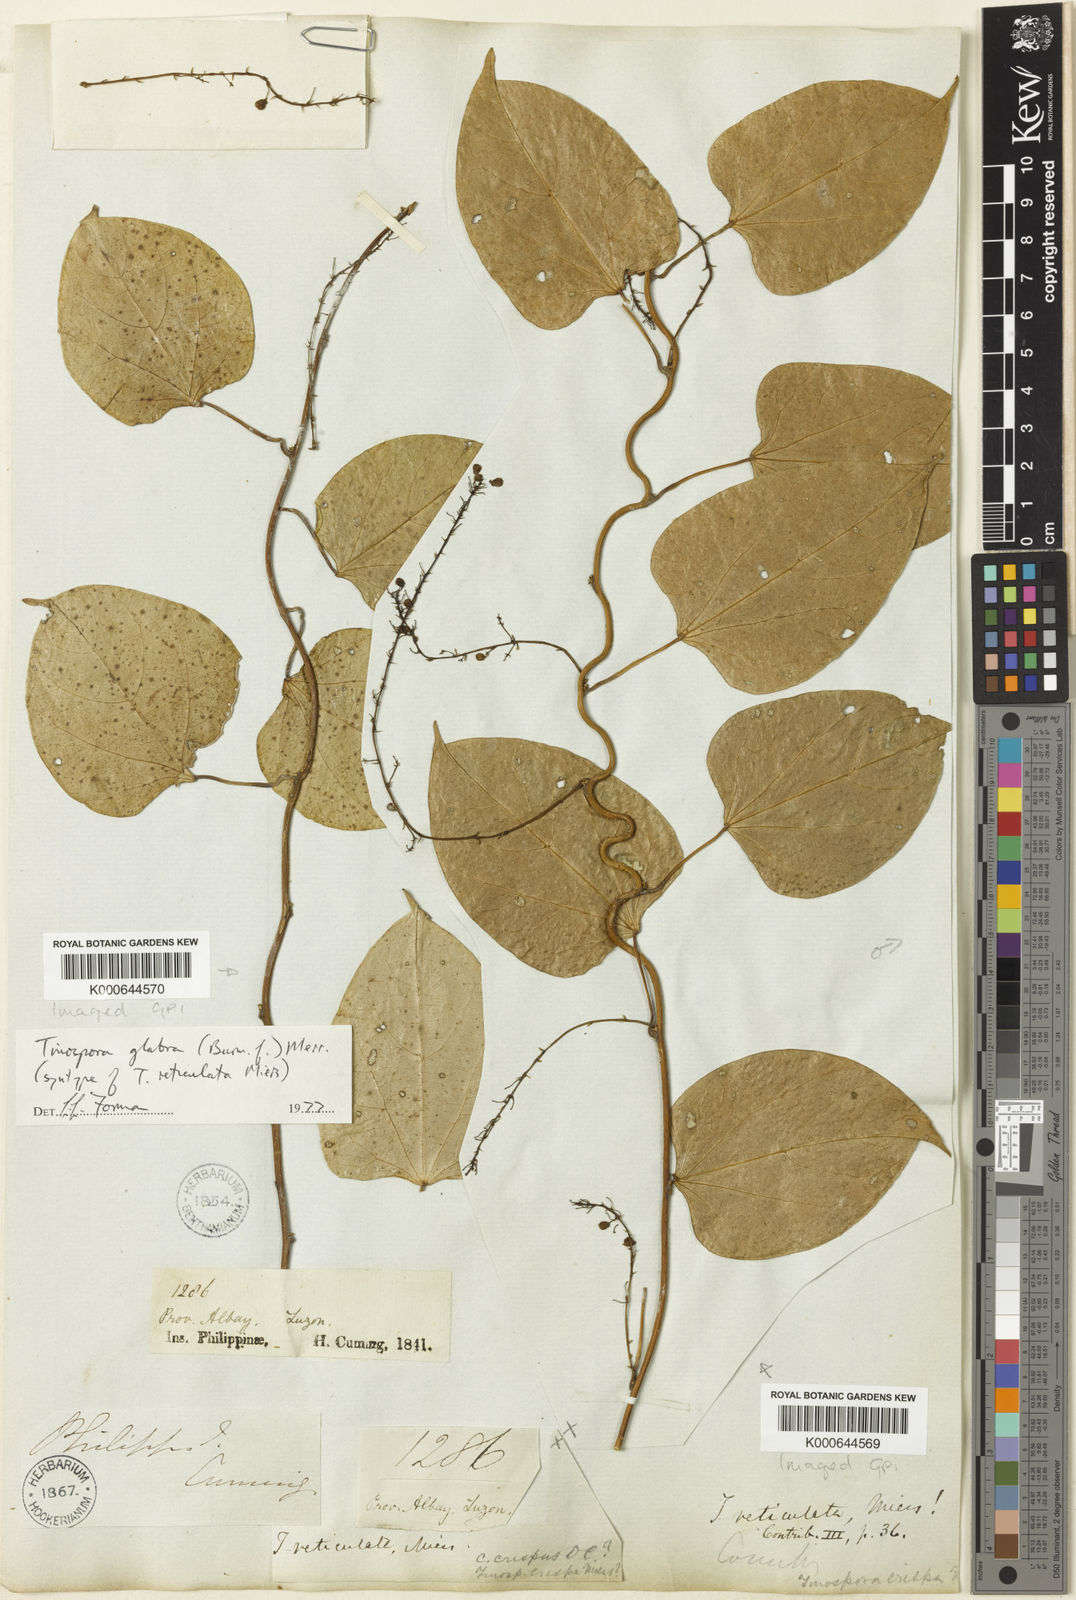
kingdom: Plantae
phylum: Tracheophyta
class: Magnoliopsida
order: Ranunculales
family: Menispermaceae
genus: Tinospora
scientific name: Tinospora glabra
